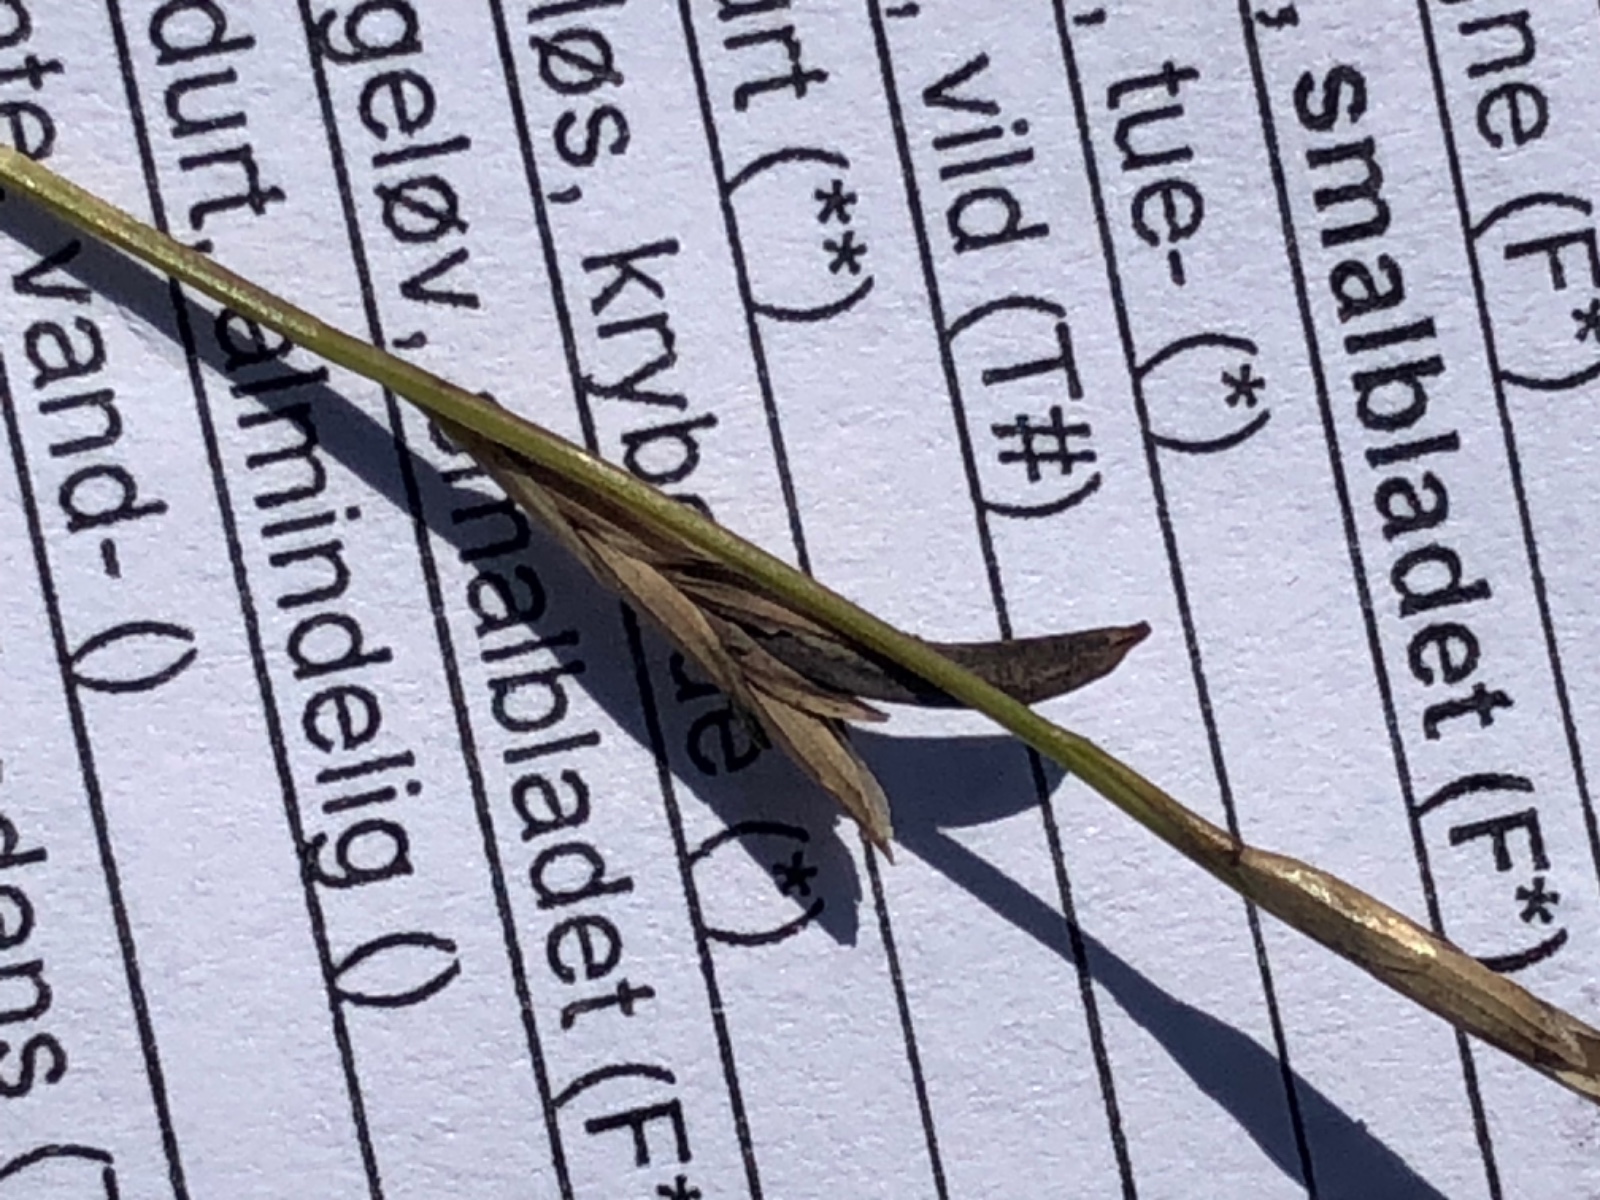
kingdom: Fungi
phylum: Ascomycota
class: Sordariomycetes
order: Hypocreales
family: Clavicipitaceae
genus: Claviceps
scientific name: Claviceps purpurea
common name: almindelig meldrøjer
